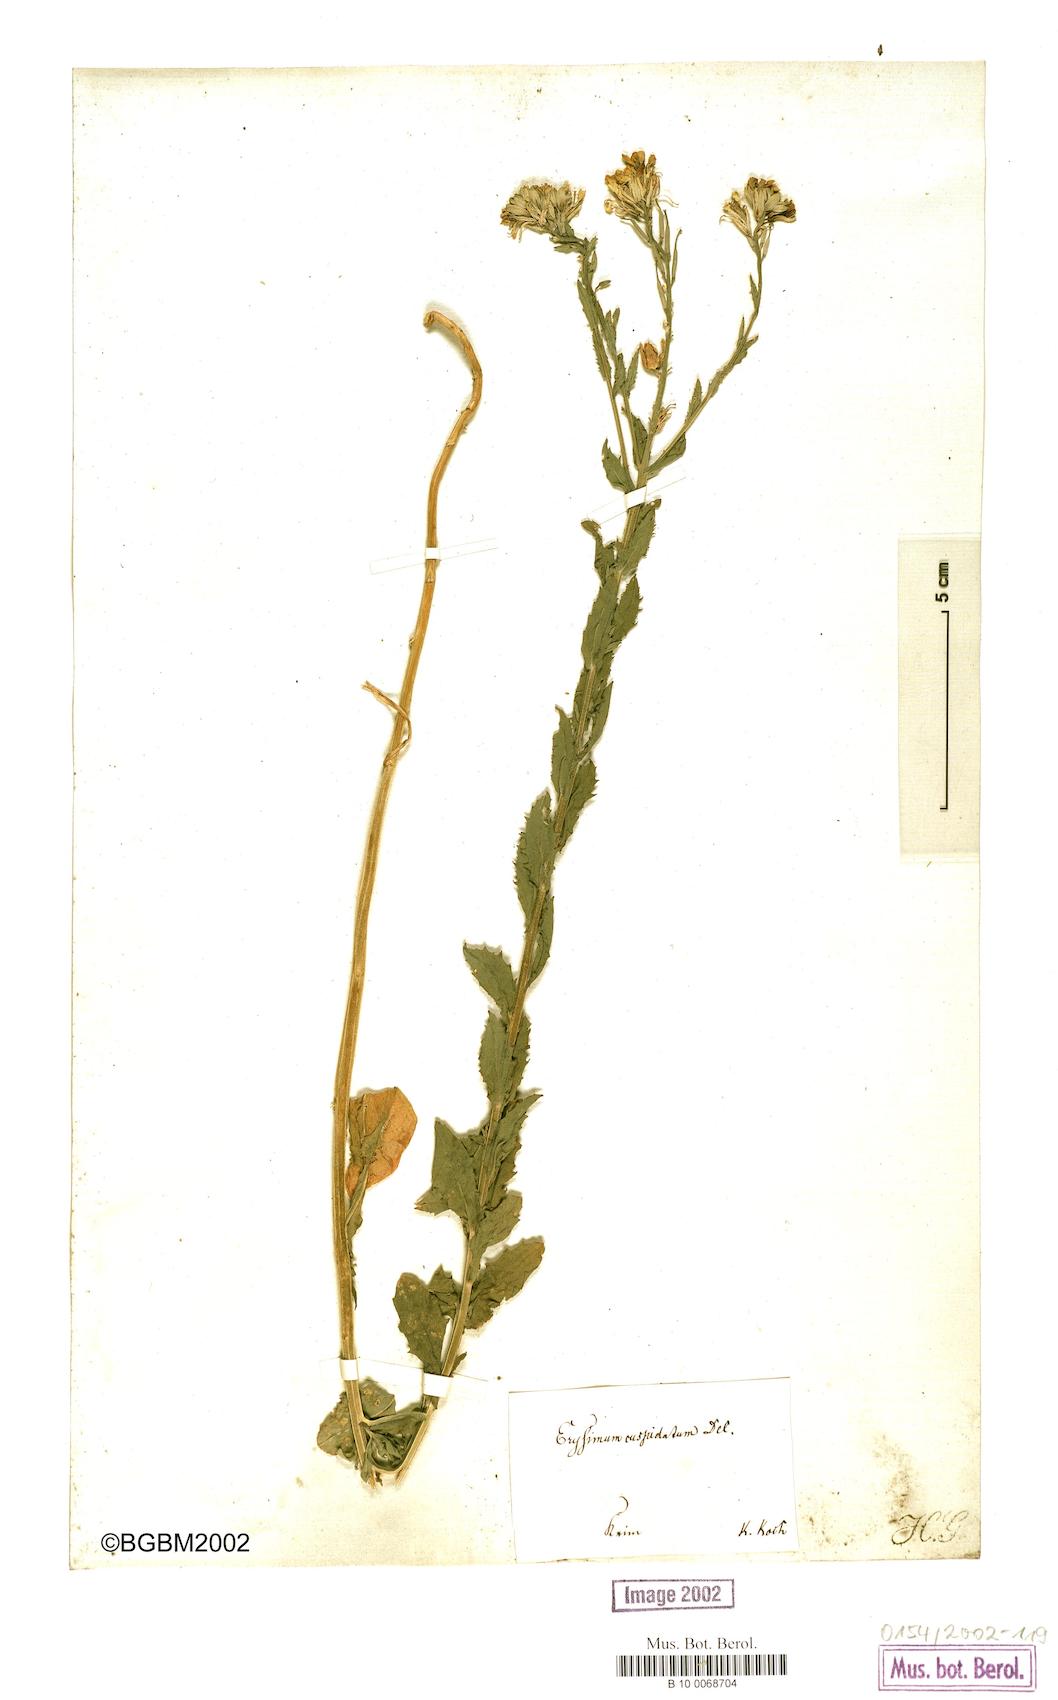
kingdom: Plantae
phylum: Tracheophyta
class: Magnoliopsida
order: Brassicales
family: Brassicaceae
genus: Erysimum
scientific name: Erysimum cuspidatum
